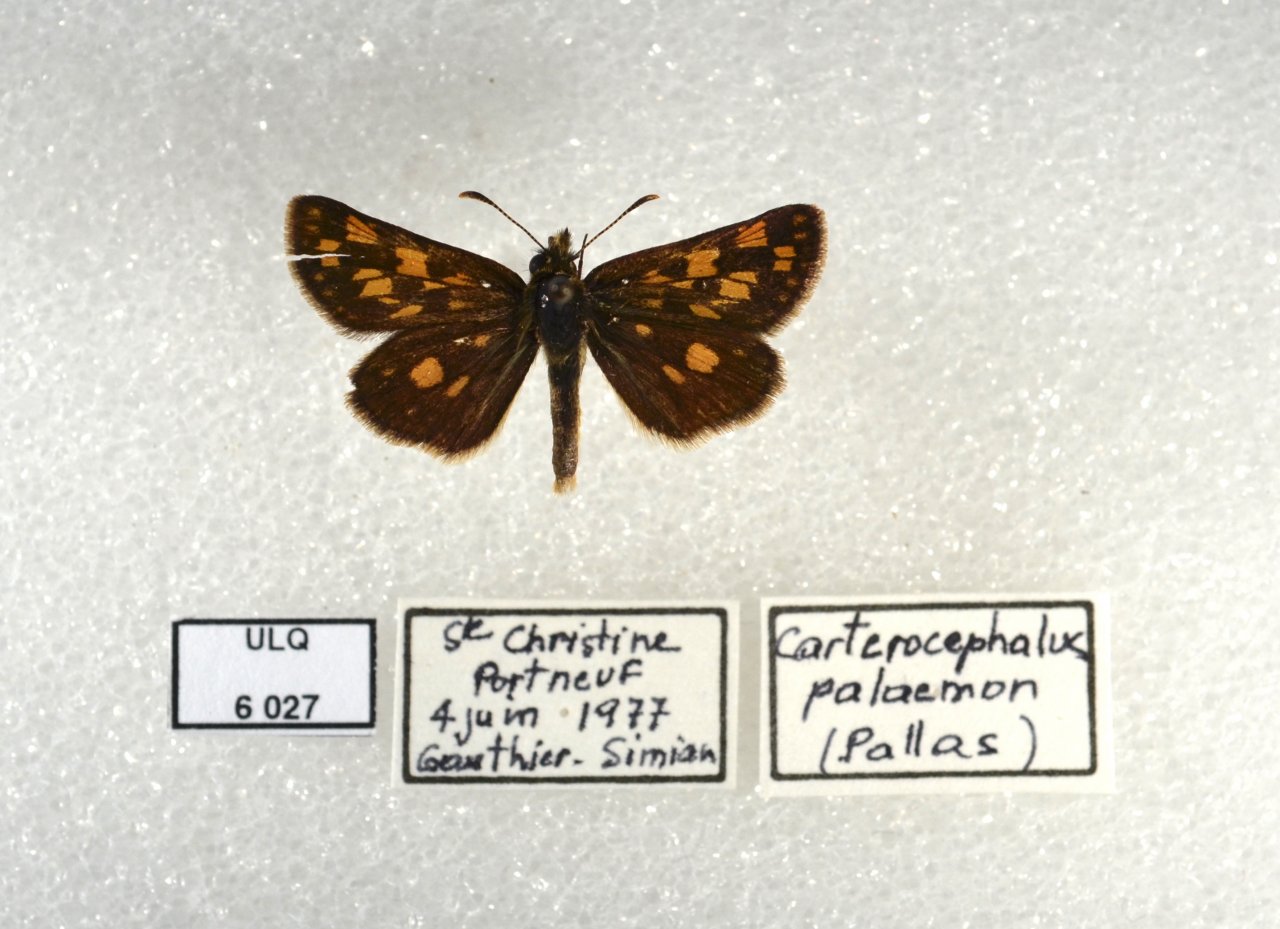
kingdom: Animalia
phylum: Arthropoda
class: Insecta
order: Lepidoptera
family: Hesperiidae
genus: Carterocephalus
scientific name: Carterocephalus palaemon
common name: Chequered Skipper
